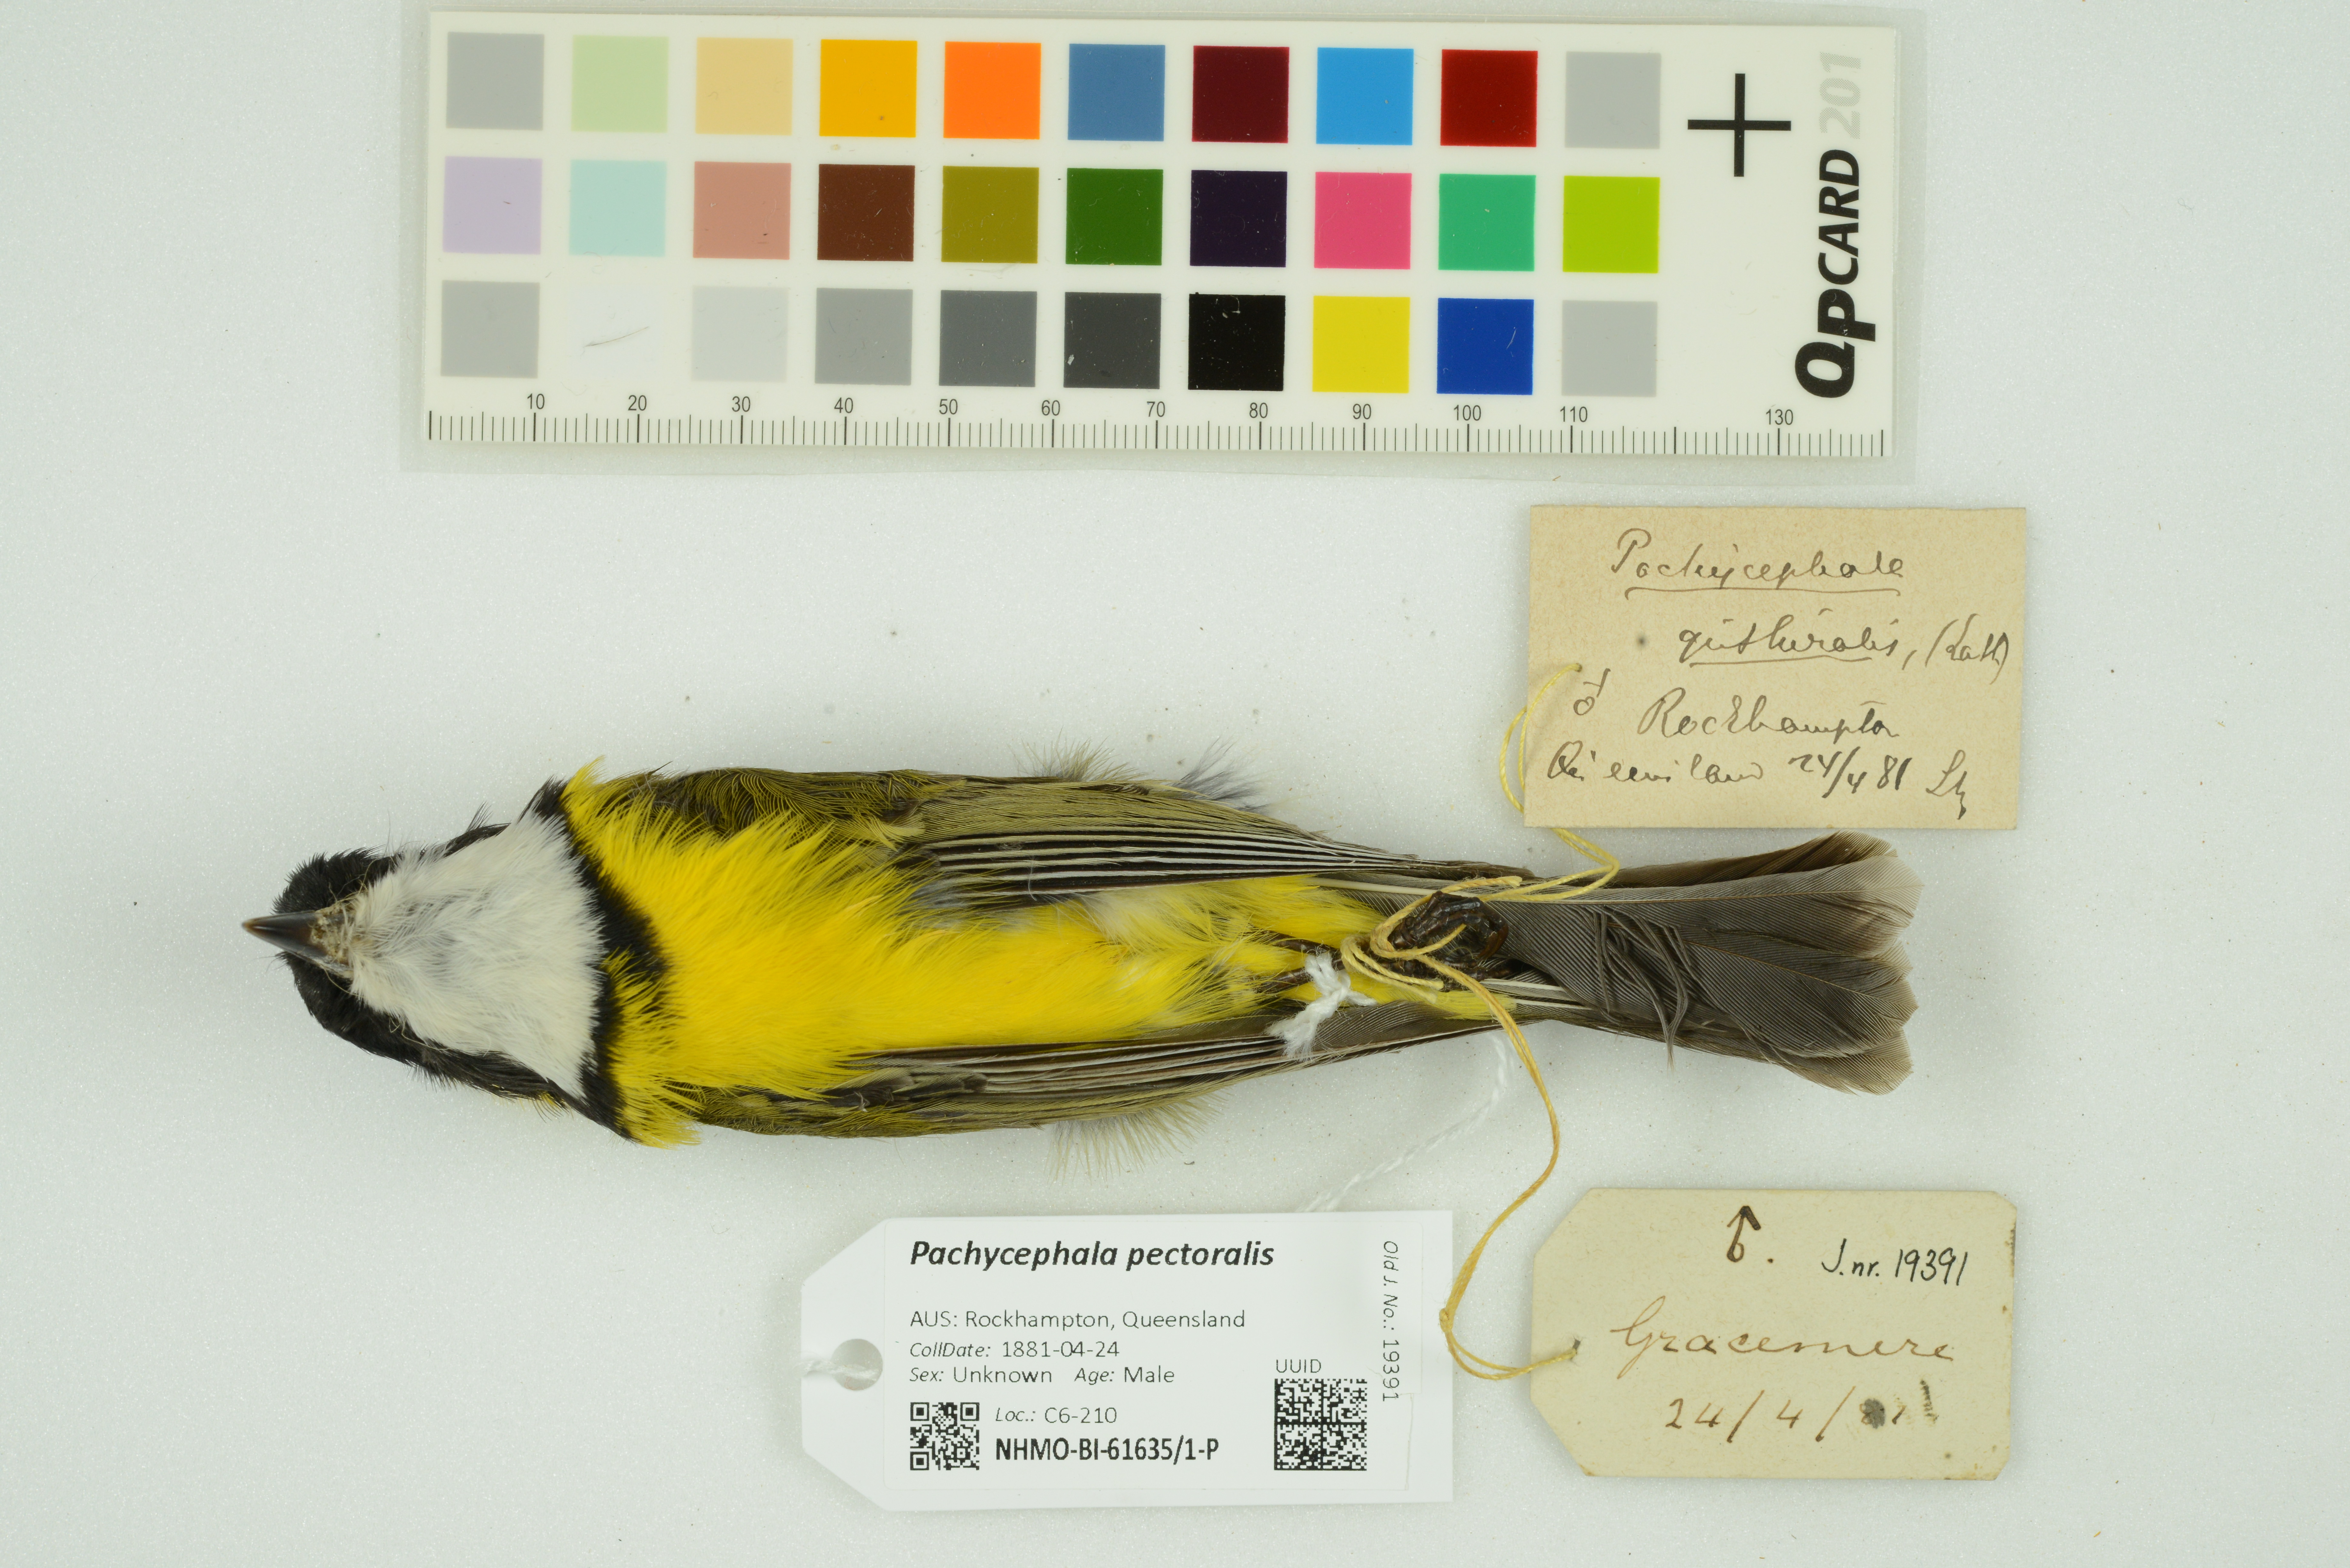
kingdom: Animalia
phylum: Chordata
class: Aves
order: Passeriformes
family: Pachycephalidae
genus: Pachycephala
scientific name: Pachycephala pectoralis
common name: Australian golden whistler
